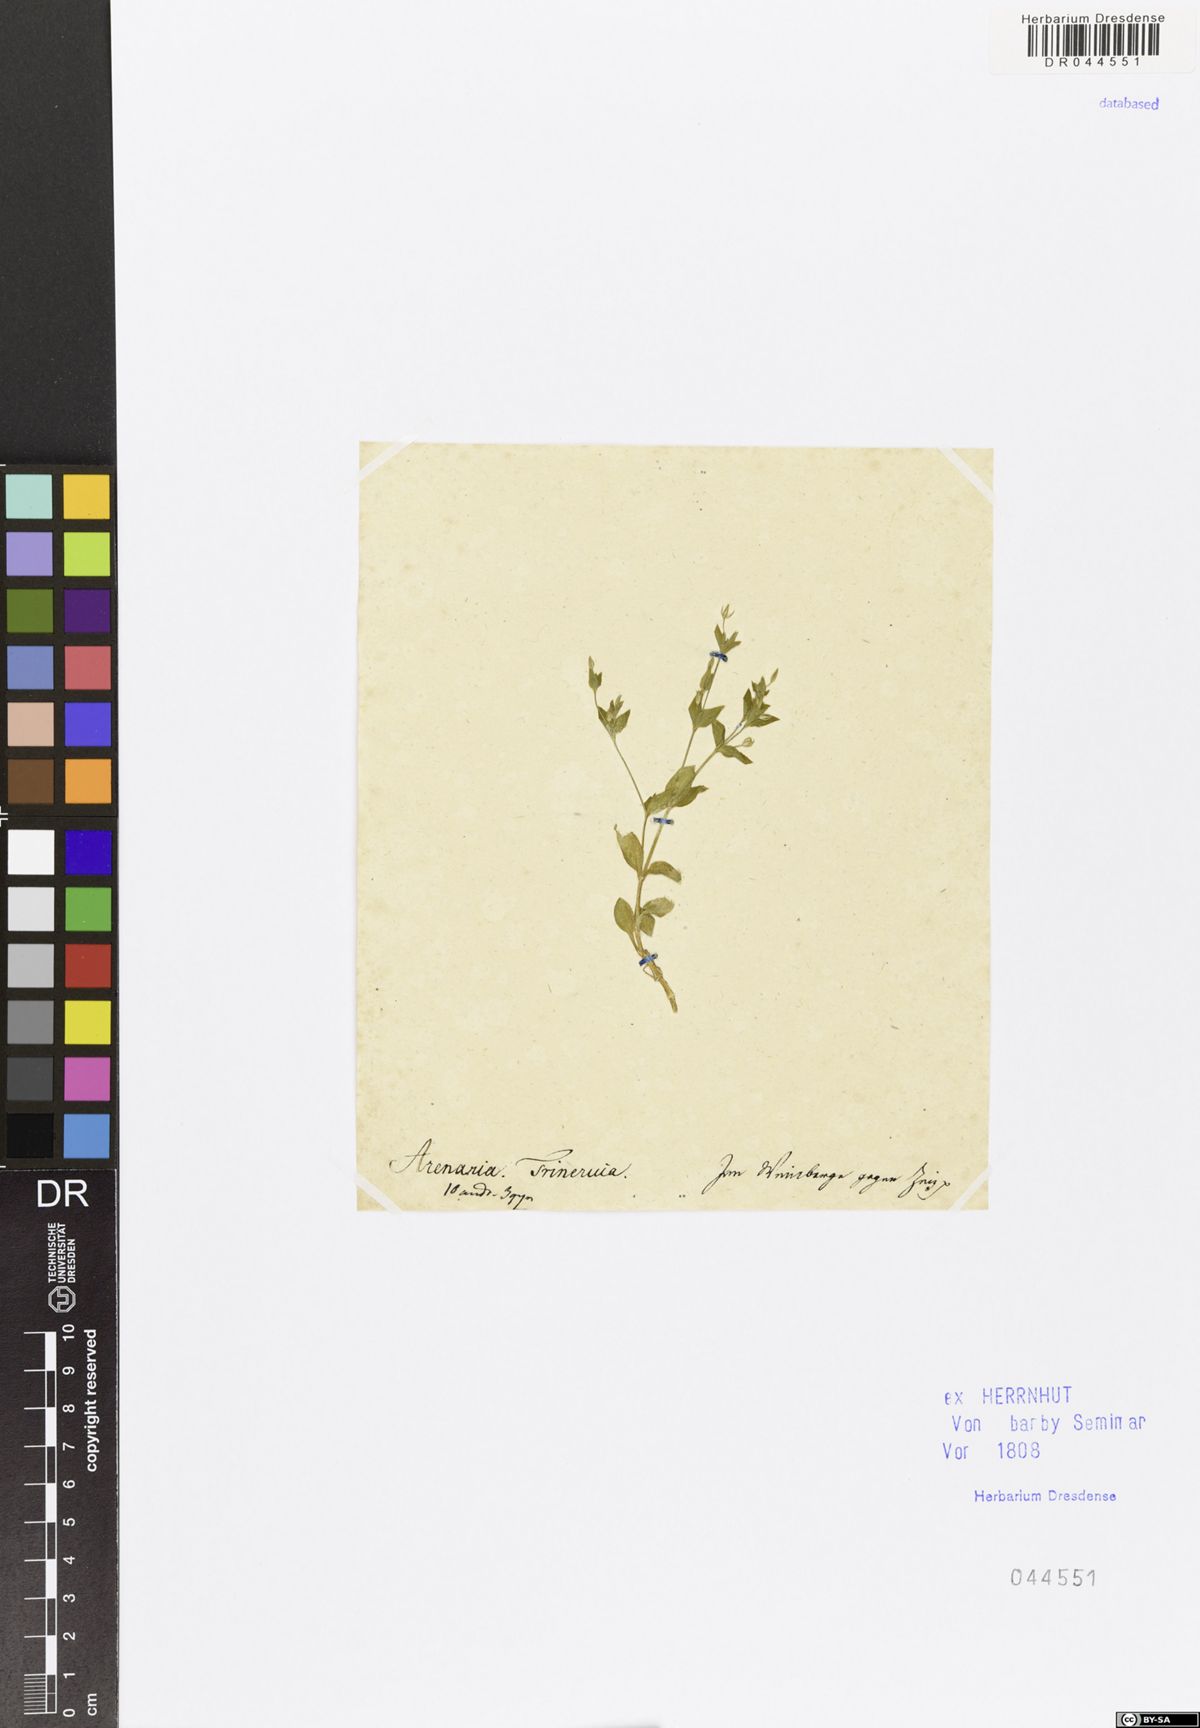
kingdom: Plantae
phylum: Tracheophyta
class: Magnoliopsida
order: Caryophyllales
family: Caryophyllaceae
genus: Moehringia
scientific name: Moehringia trinervia
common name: Three-nerved sandwort
